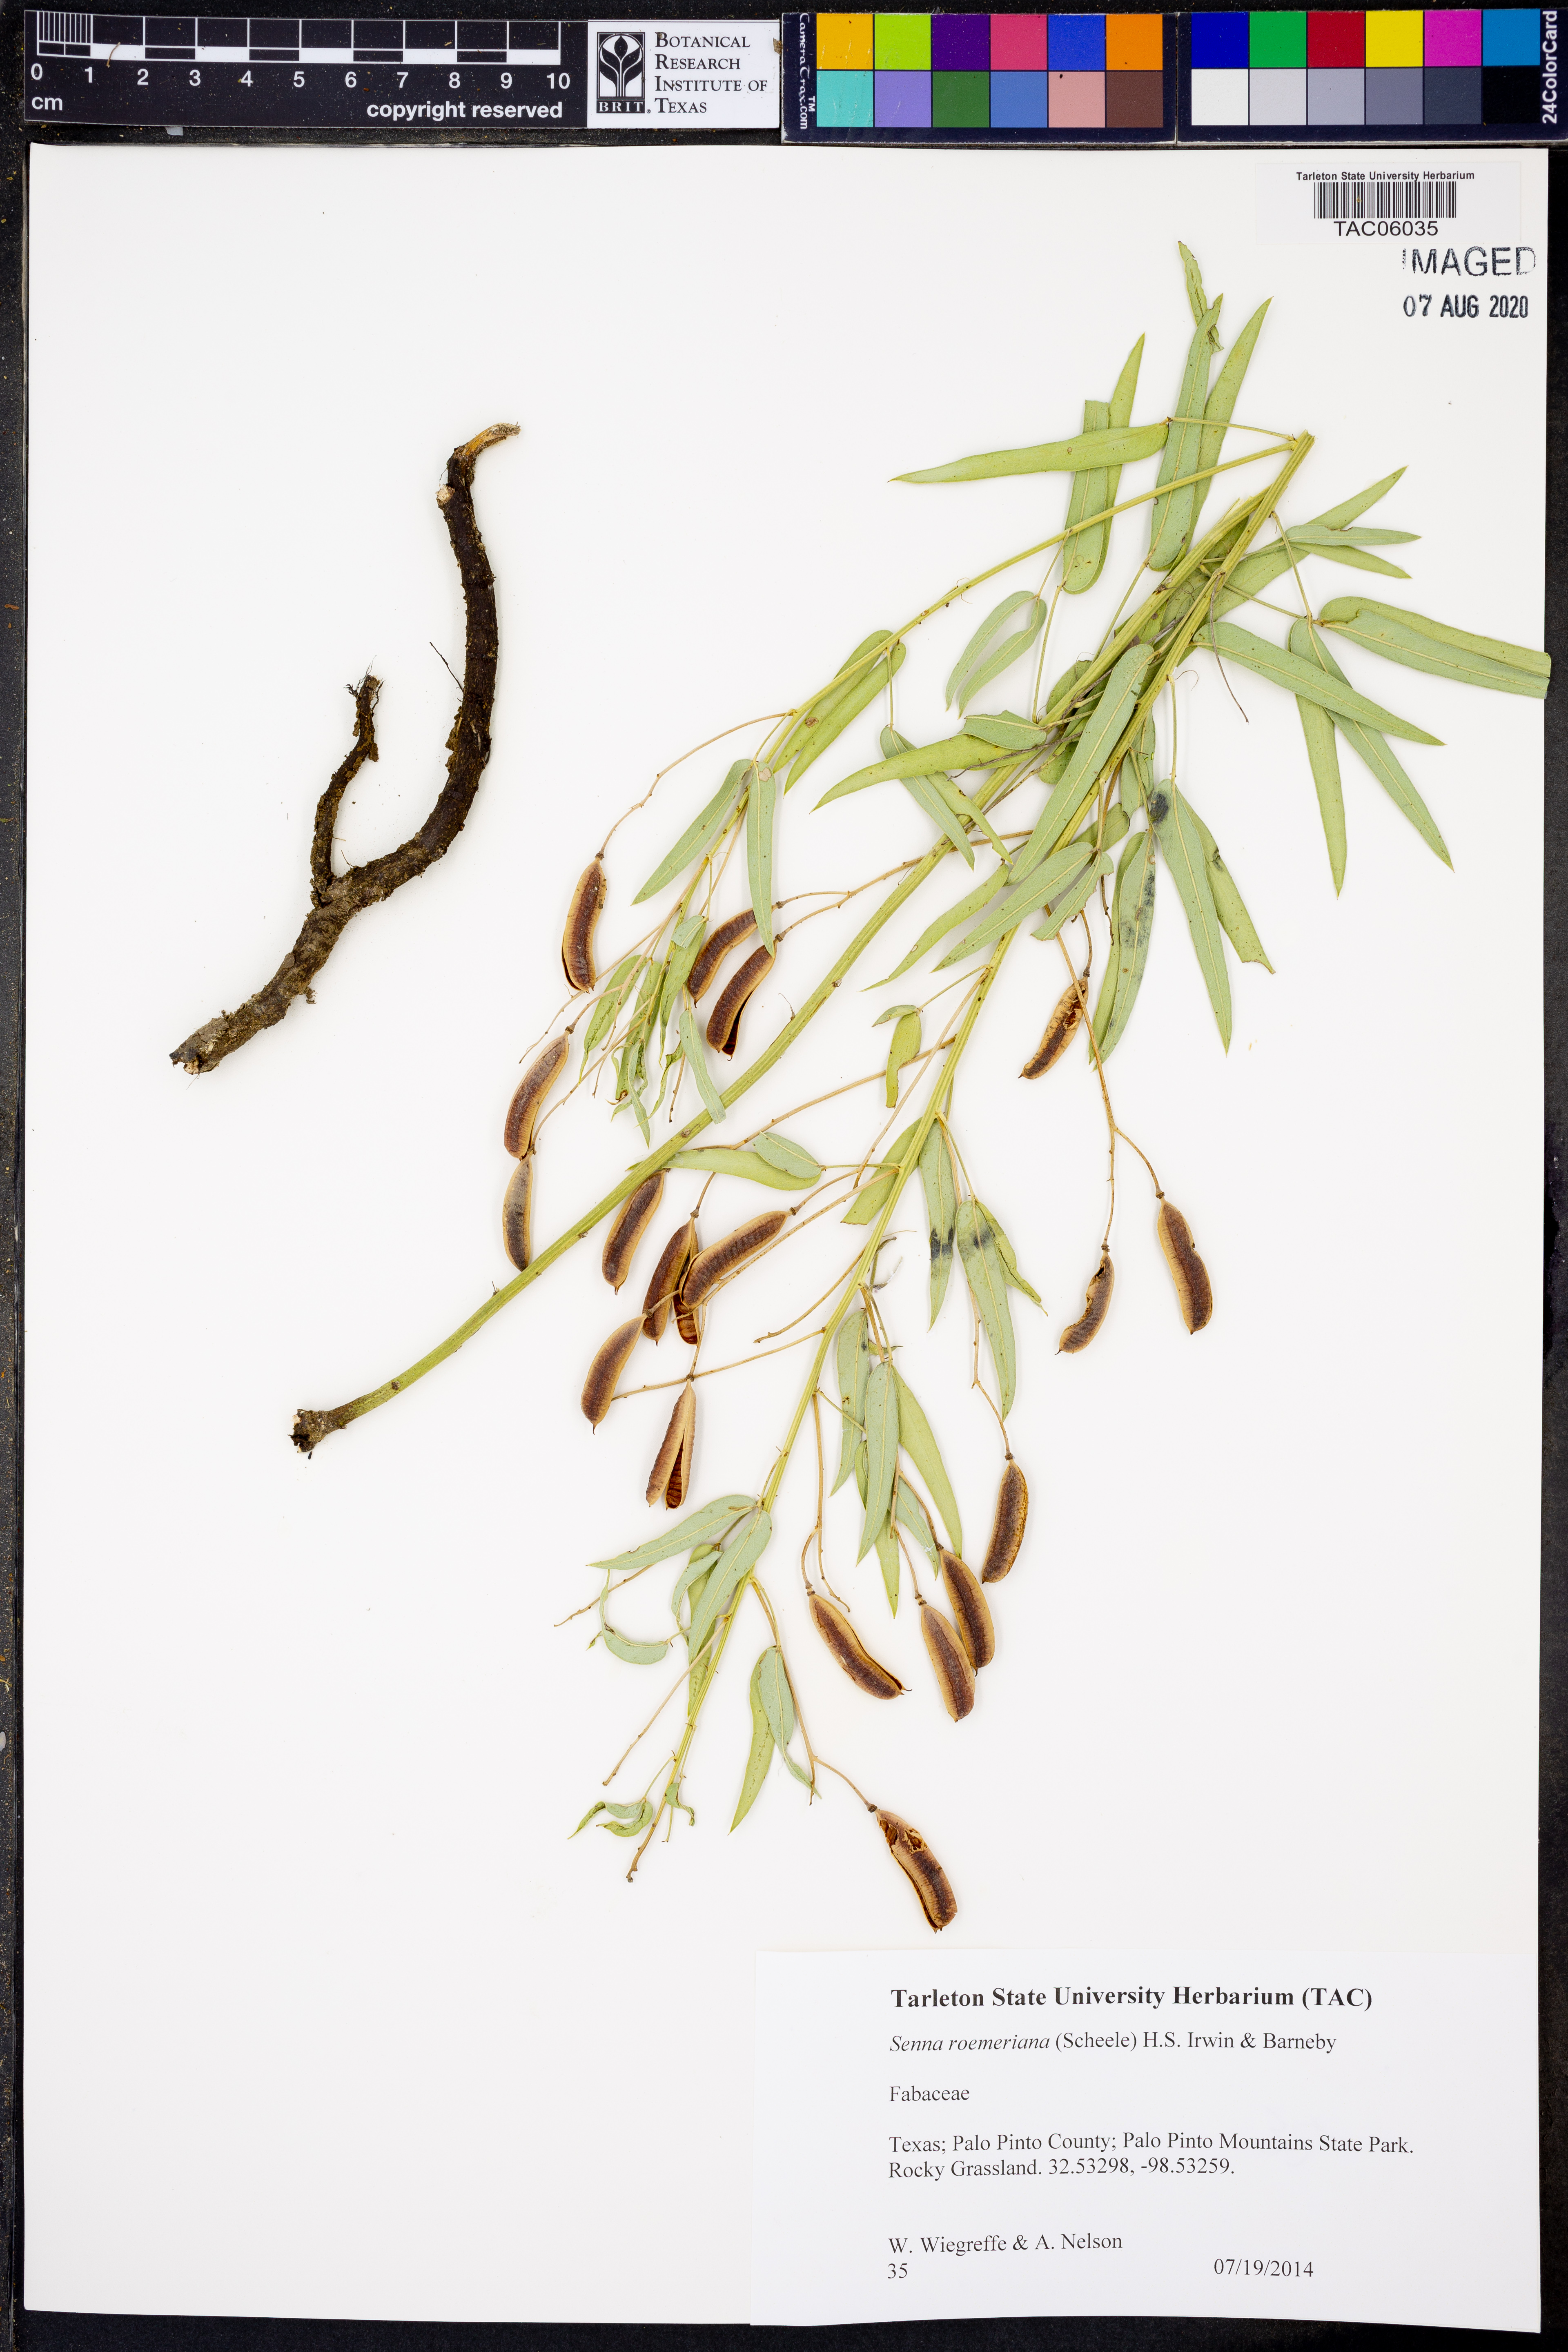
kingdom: Plantae
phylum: Tracheophyta
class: Magnoliopsida
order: Fabales
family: Fabaceae
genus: Senna
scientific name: Senna roemeriana
